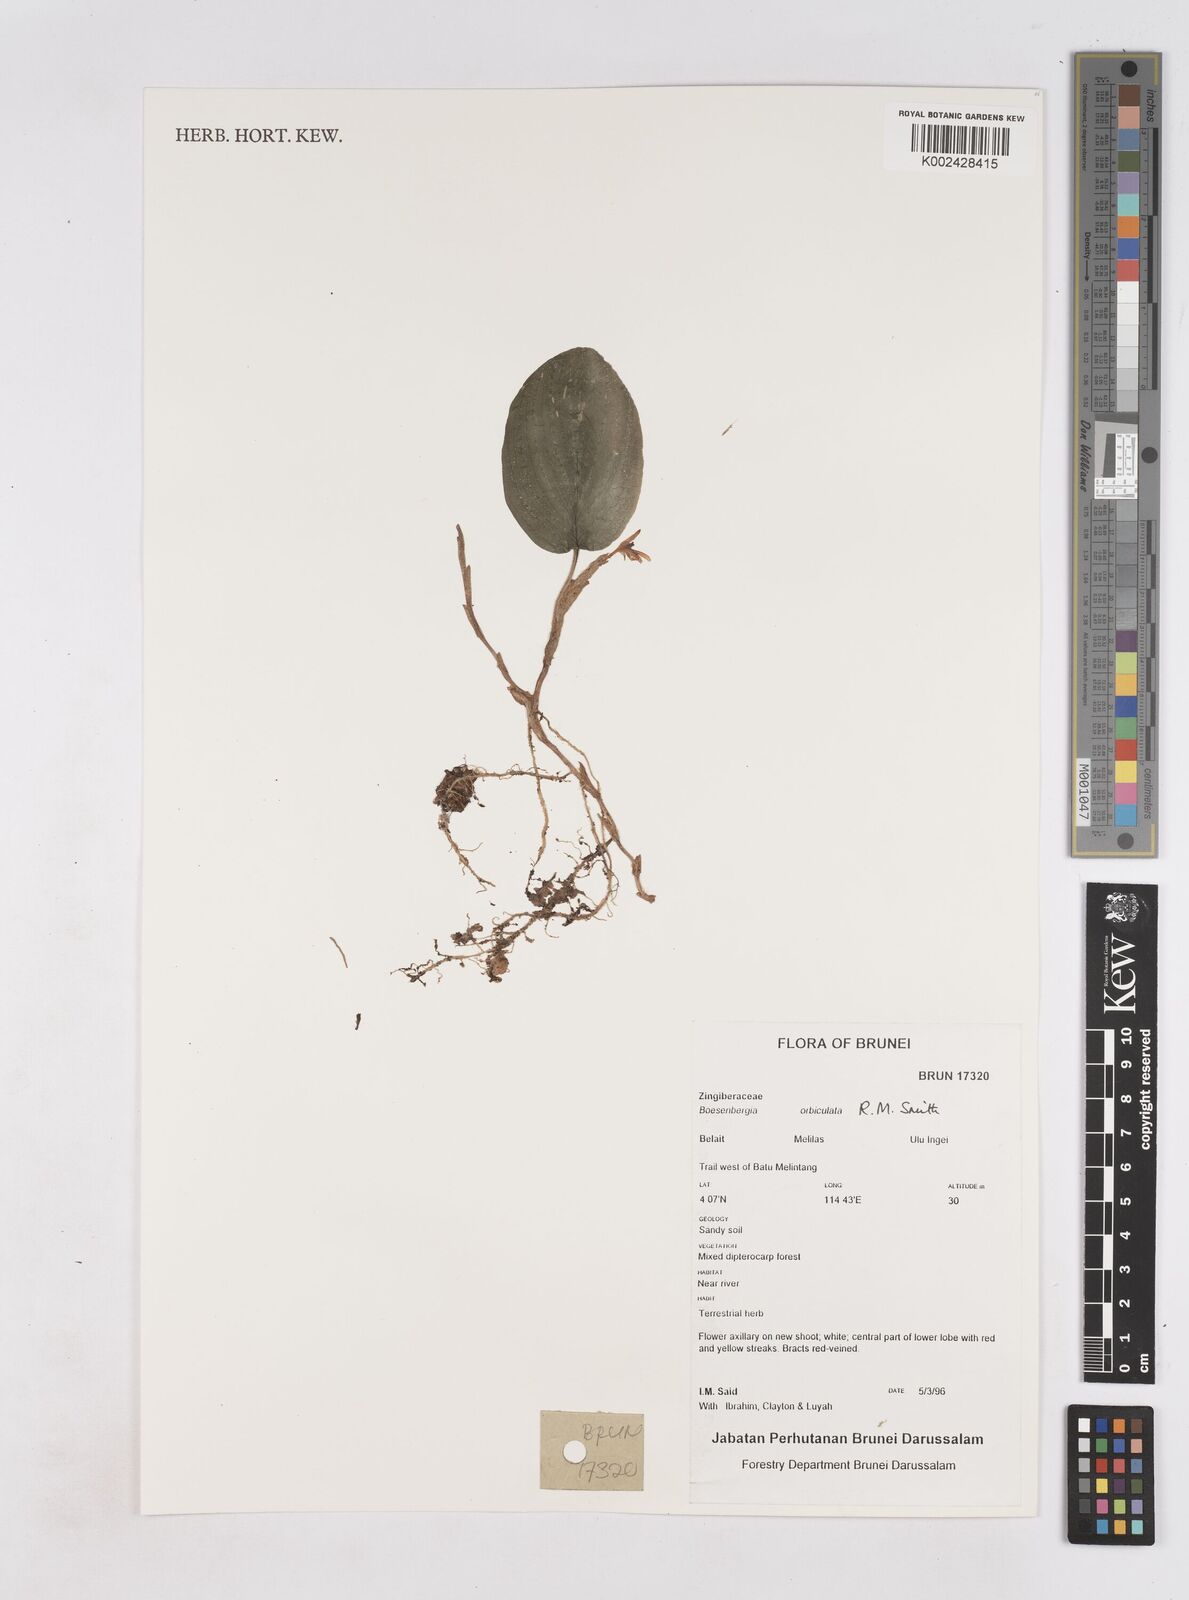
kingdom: Plantae
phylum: Tracheophyta
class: Liliopsida
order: Zingiberales
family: Zingiberaceae
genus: Boesenbergia
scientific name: Boesenbergia orbiculata
